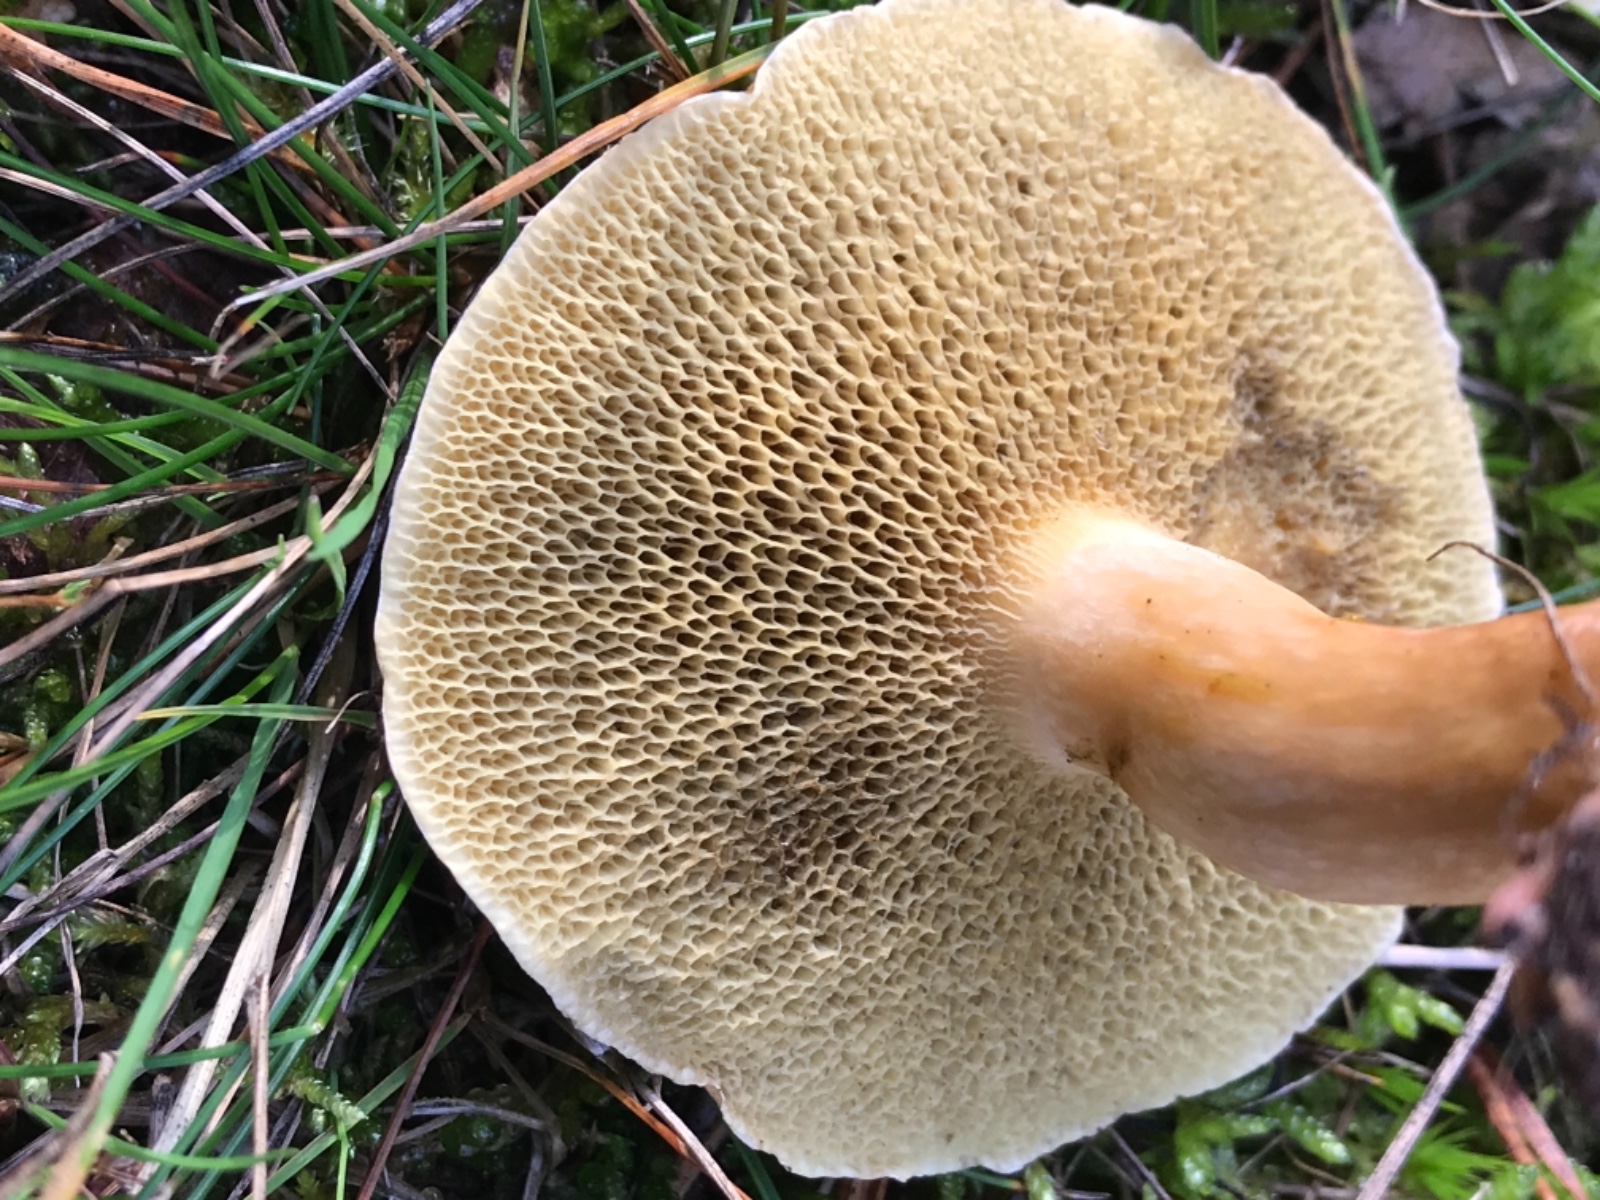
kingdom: Fungi
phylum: Basidiomycota
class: Agaricomycetes
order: Boletales
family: Suillaceae
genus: Suillus
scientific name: Suillus bovinus
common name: grovporet slimrørhat
